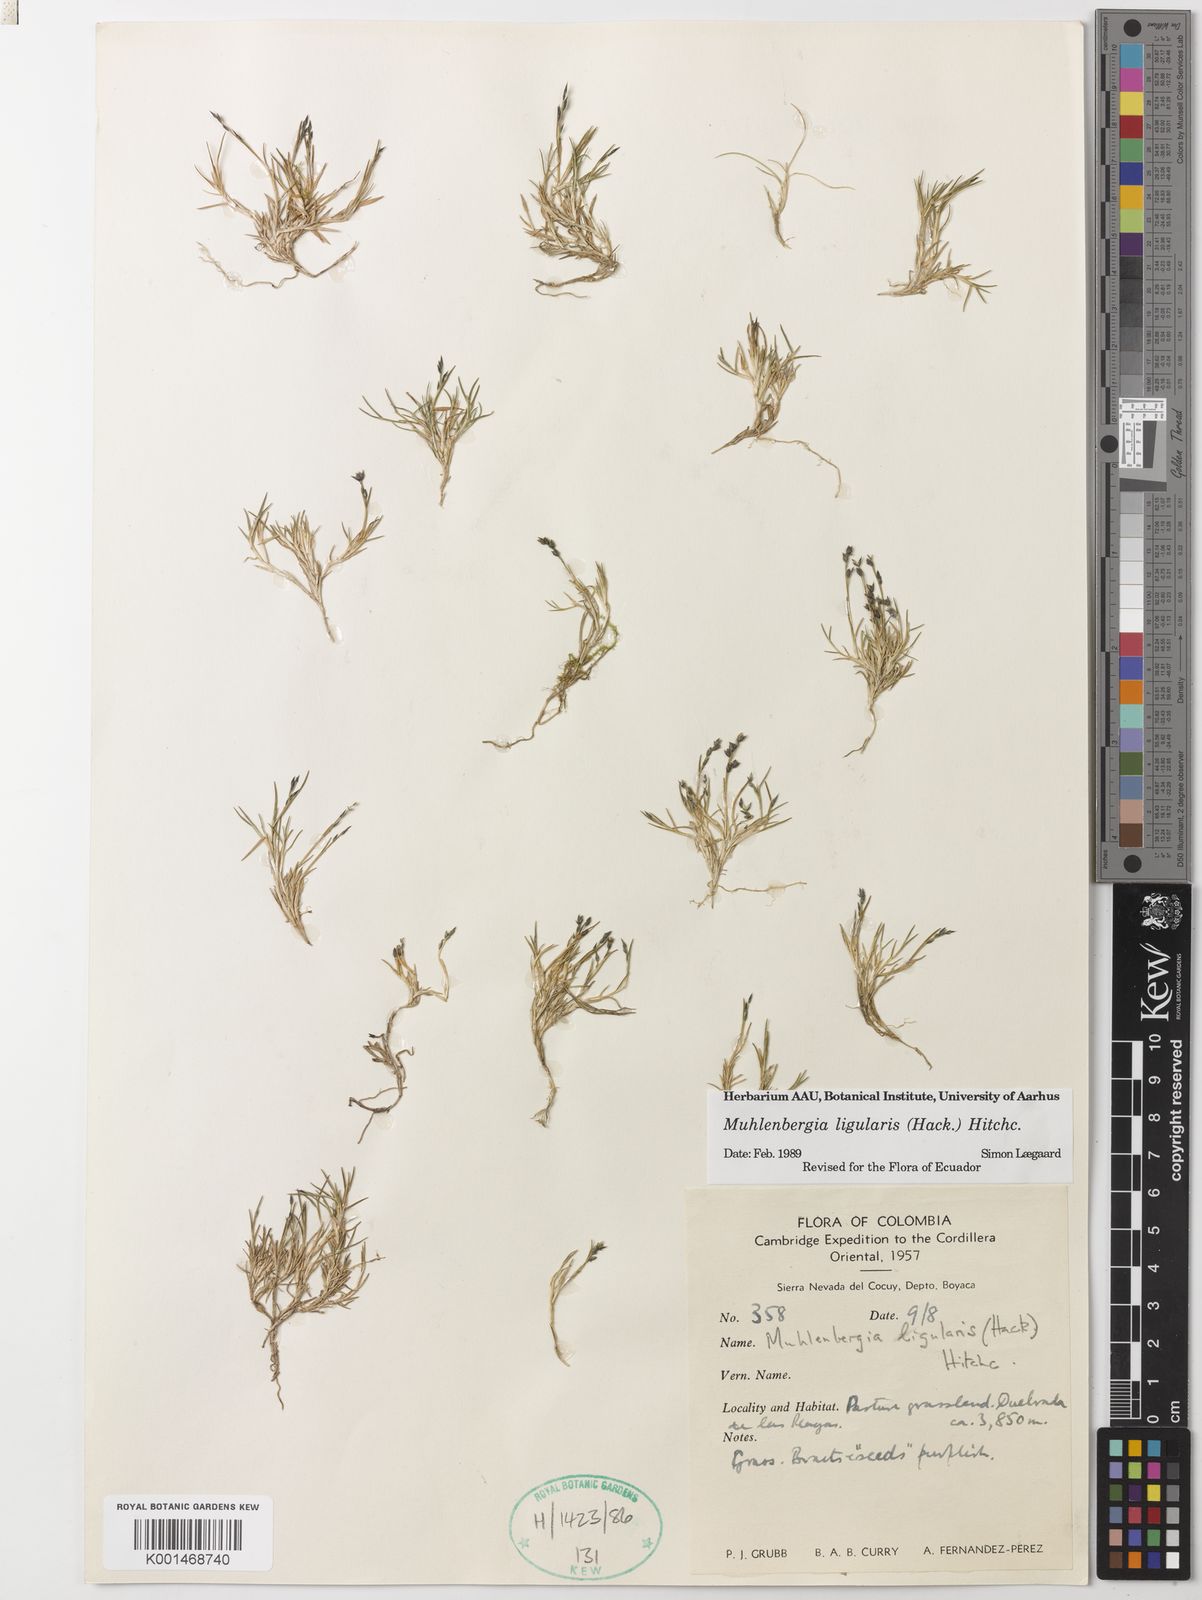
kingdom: Plantae
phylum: Tracheophyta
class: Liliopsida
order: Poales
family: Poaceae
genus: Muhlenbergia
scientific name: Muhlenbergia ligularis
